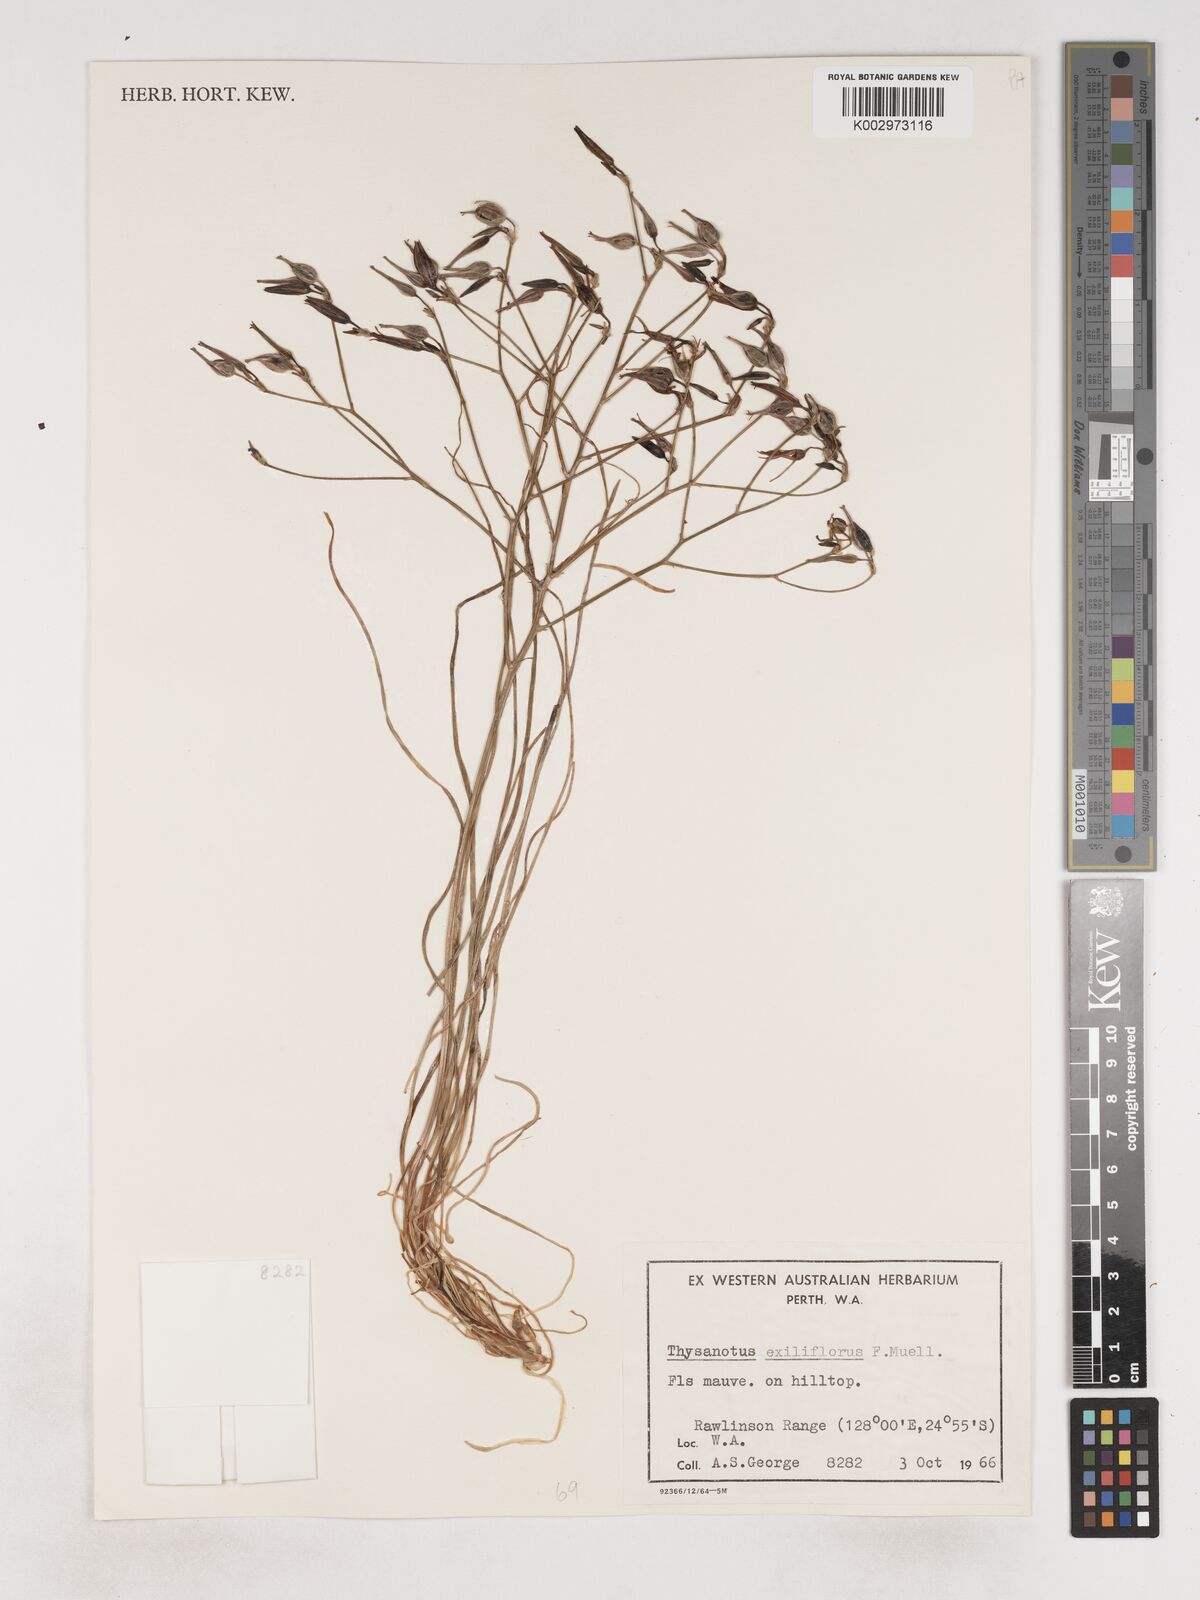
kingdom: Plantae
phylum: Tracheophyta
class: Liliopsida
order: Asparagales
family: Asparagaceae
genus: Thysanotus
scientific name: Thysanotus exiliflorus
